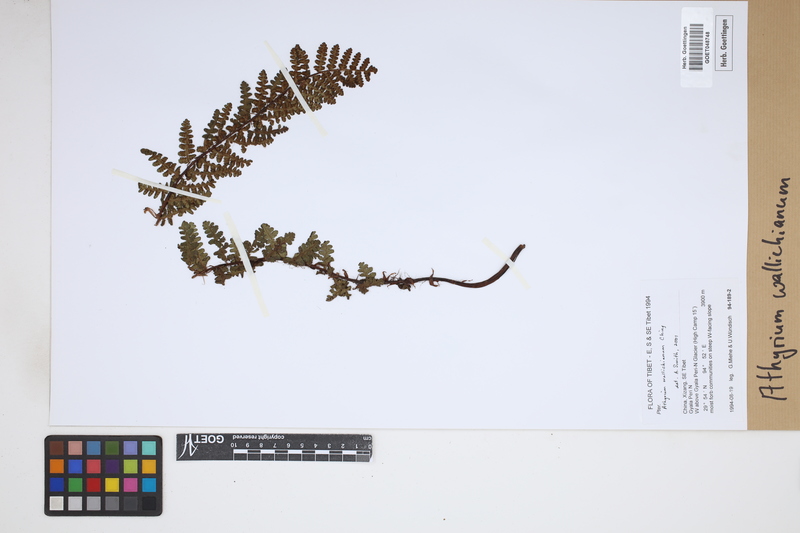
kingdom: Plantae
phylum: Tracheophyta
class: Polypodiopsida
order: Polypodiales
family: Athyriaceae
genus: Athyrium
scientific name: Athyrium wallichianum
